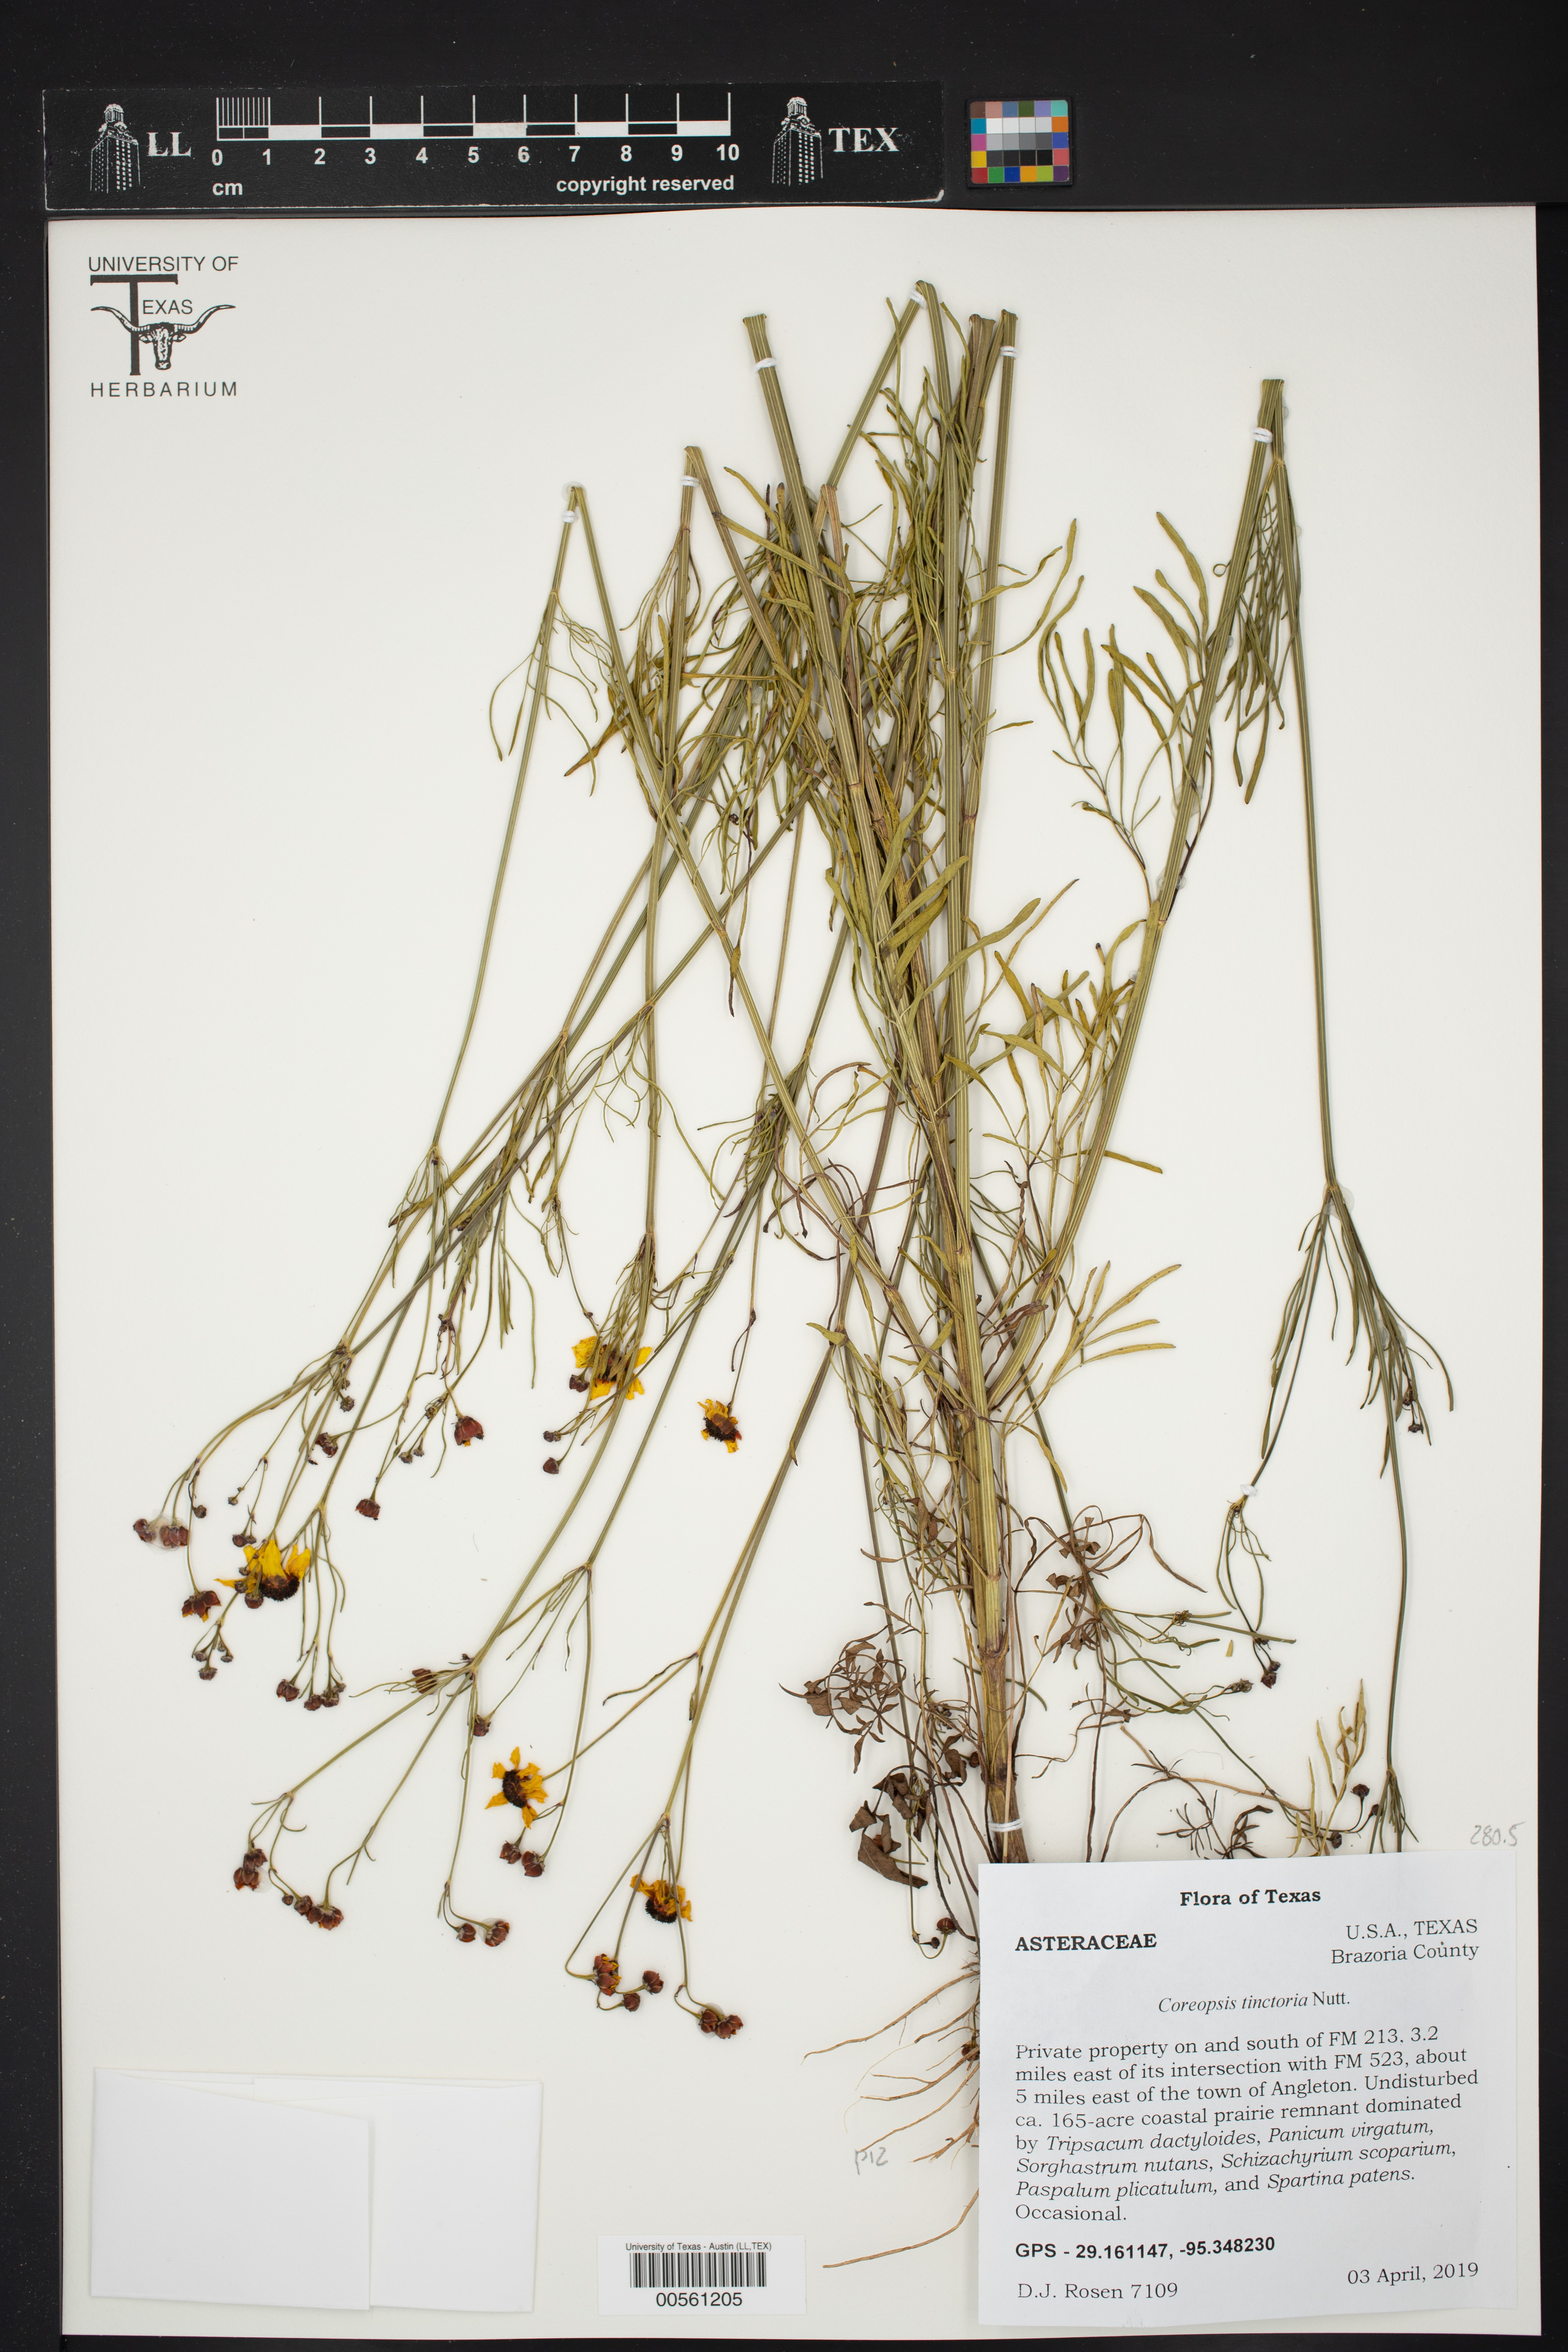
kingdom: Plantae
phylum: Tracheophyta
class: Magnoliopsida
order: Asterales
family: Asteraceae
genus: Coreopsis
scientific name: Coreopsis tinctoria
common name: Garden tickseed
